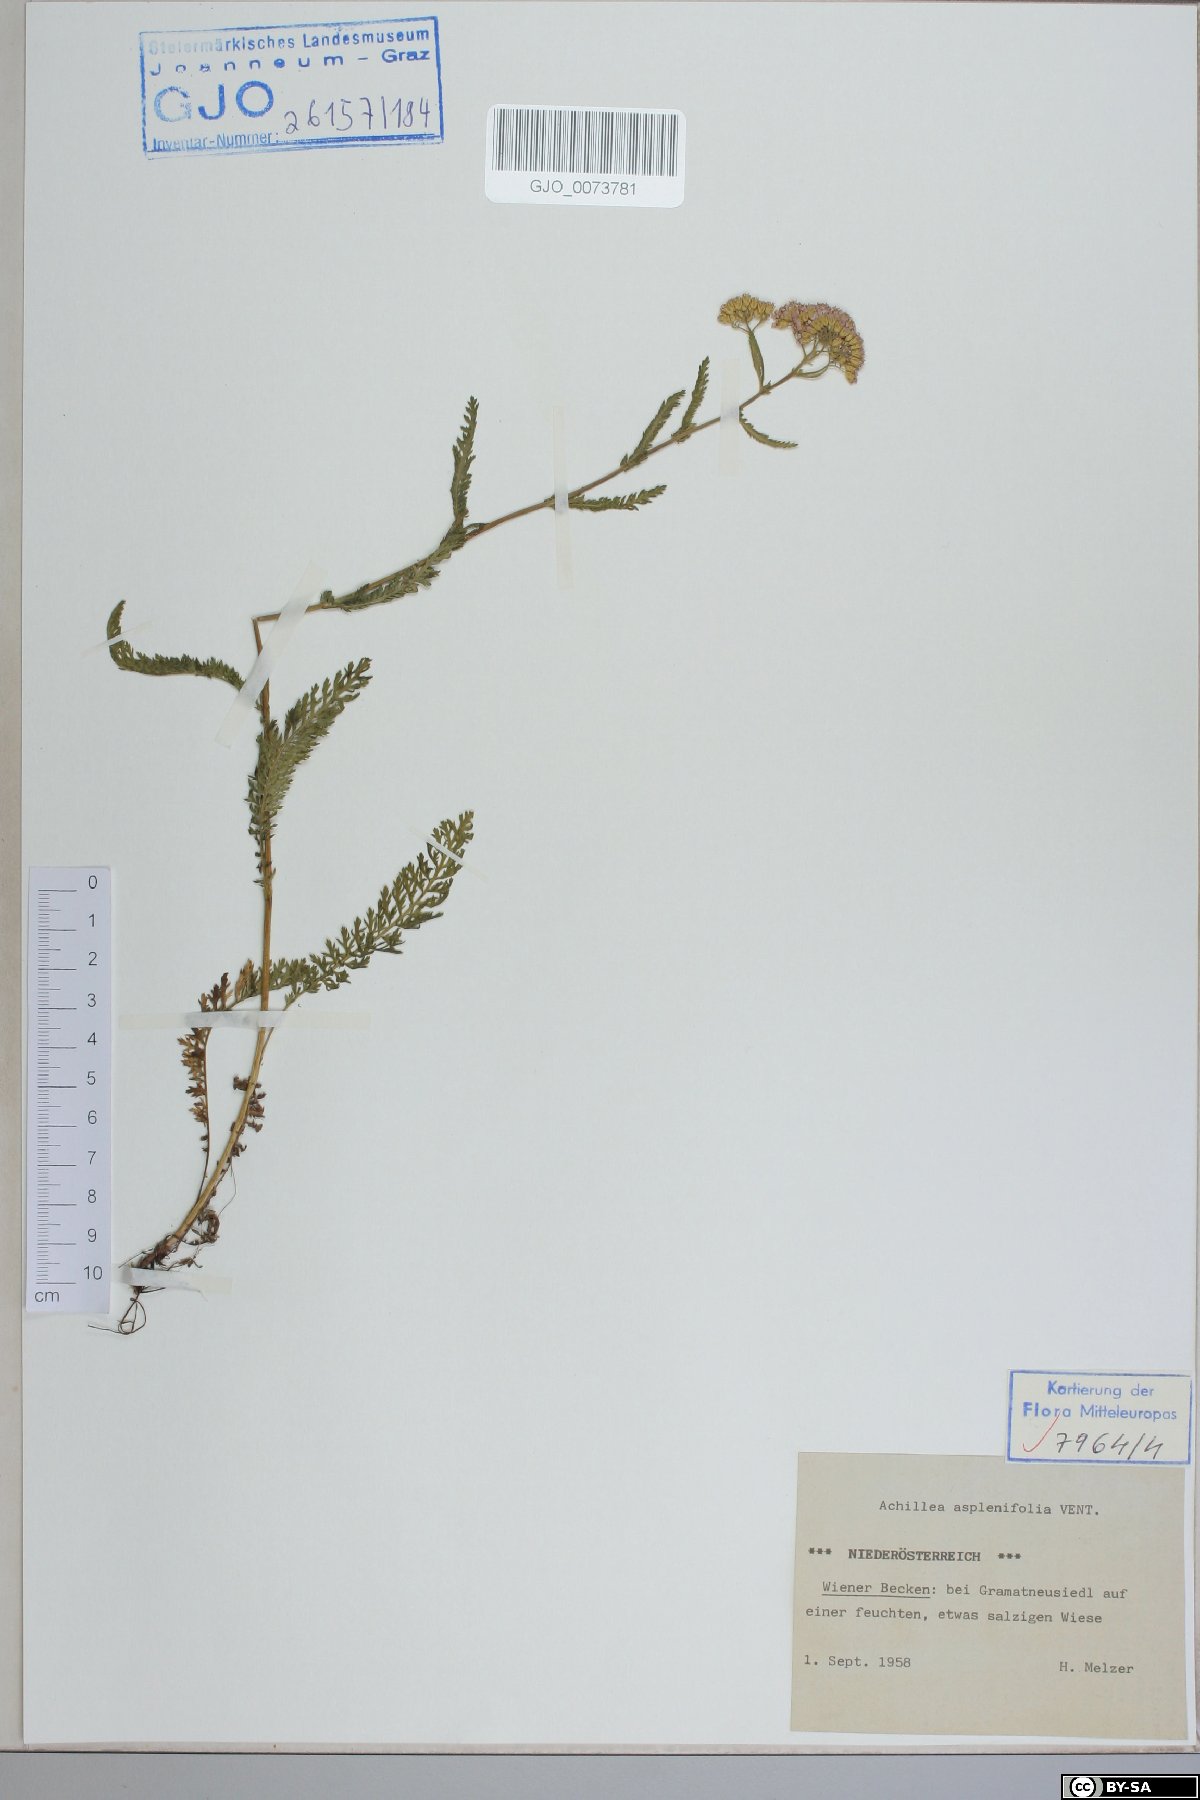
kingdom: Plantae
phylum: Tracheophyta
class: Magnoliopsida
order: Asterales
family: Asteraceae
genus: Achillea
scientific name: Achillea aspleniifolia
